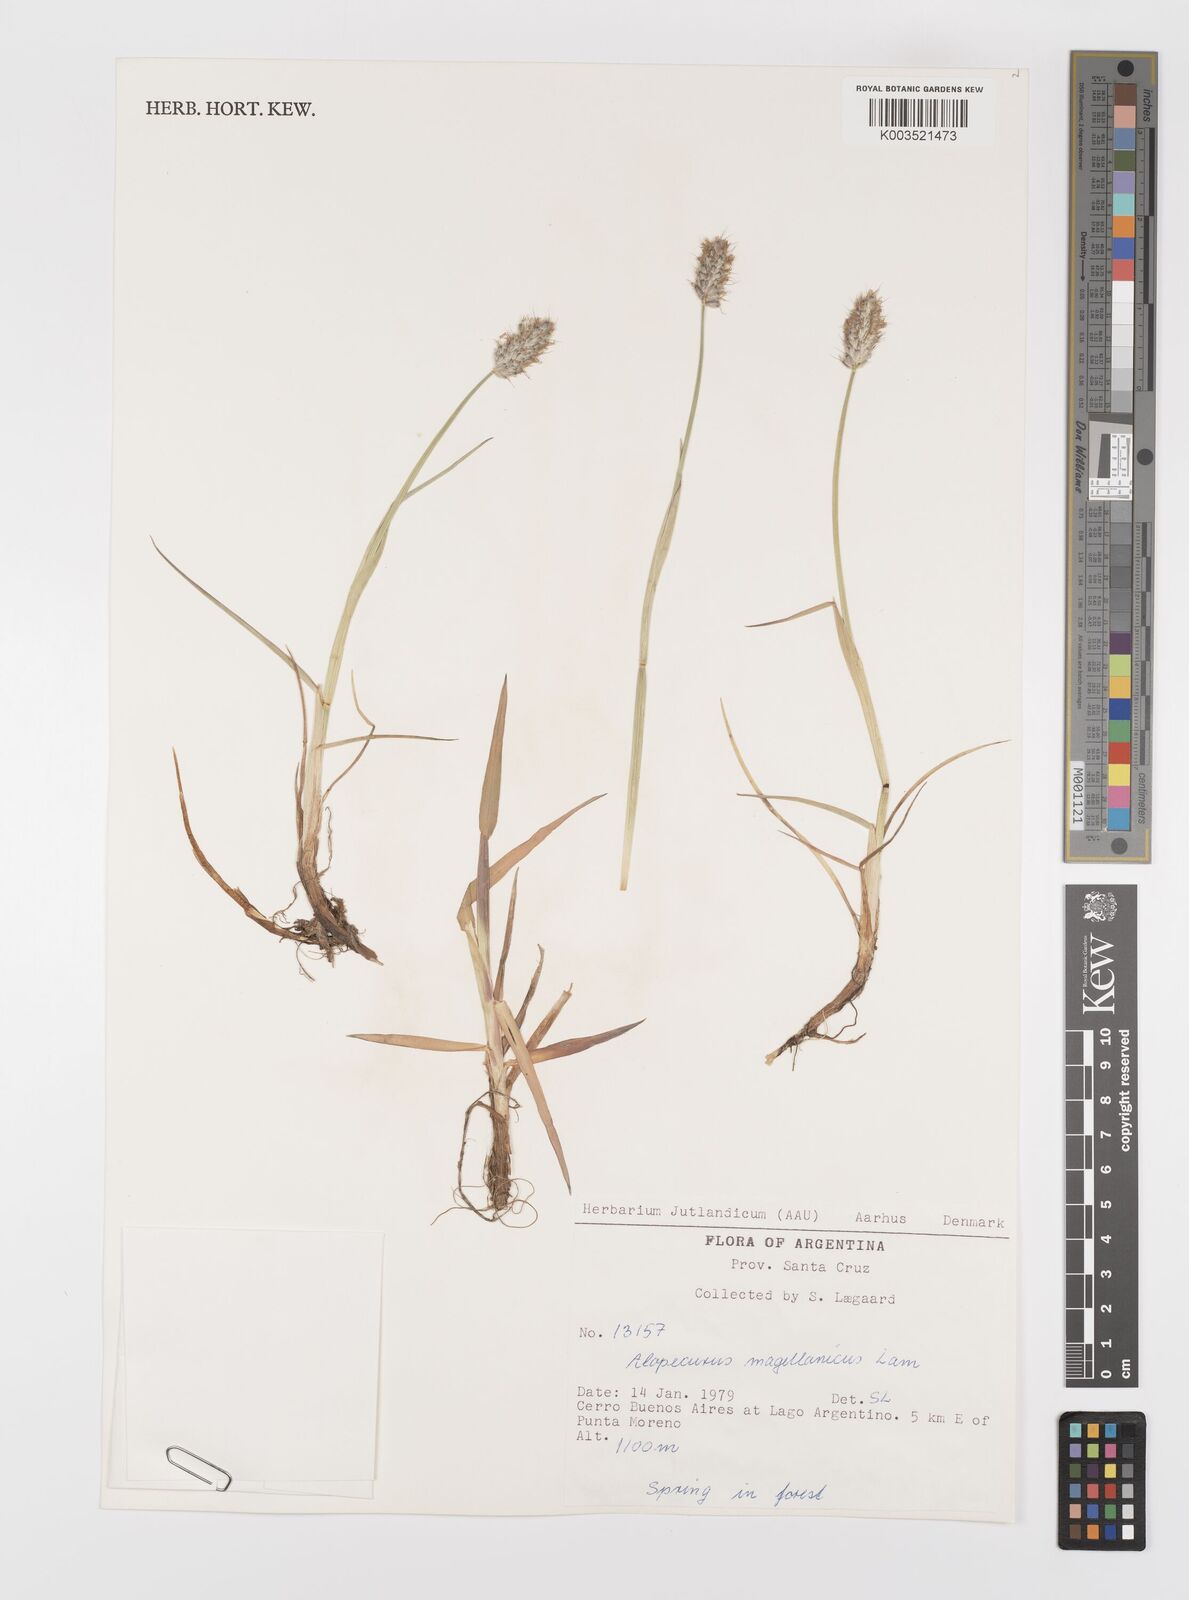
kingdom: Plantae
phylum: Tracheophyta
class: Liliopsida
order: Poales
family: Poaceae
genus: Alopecurus
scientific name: Alopecurus magellanicus
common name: Alpine foxtail
